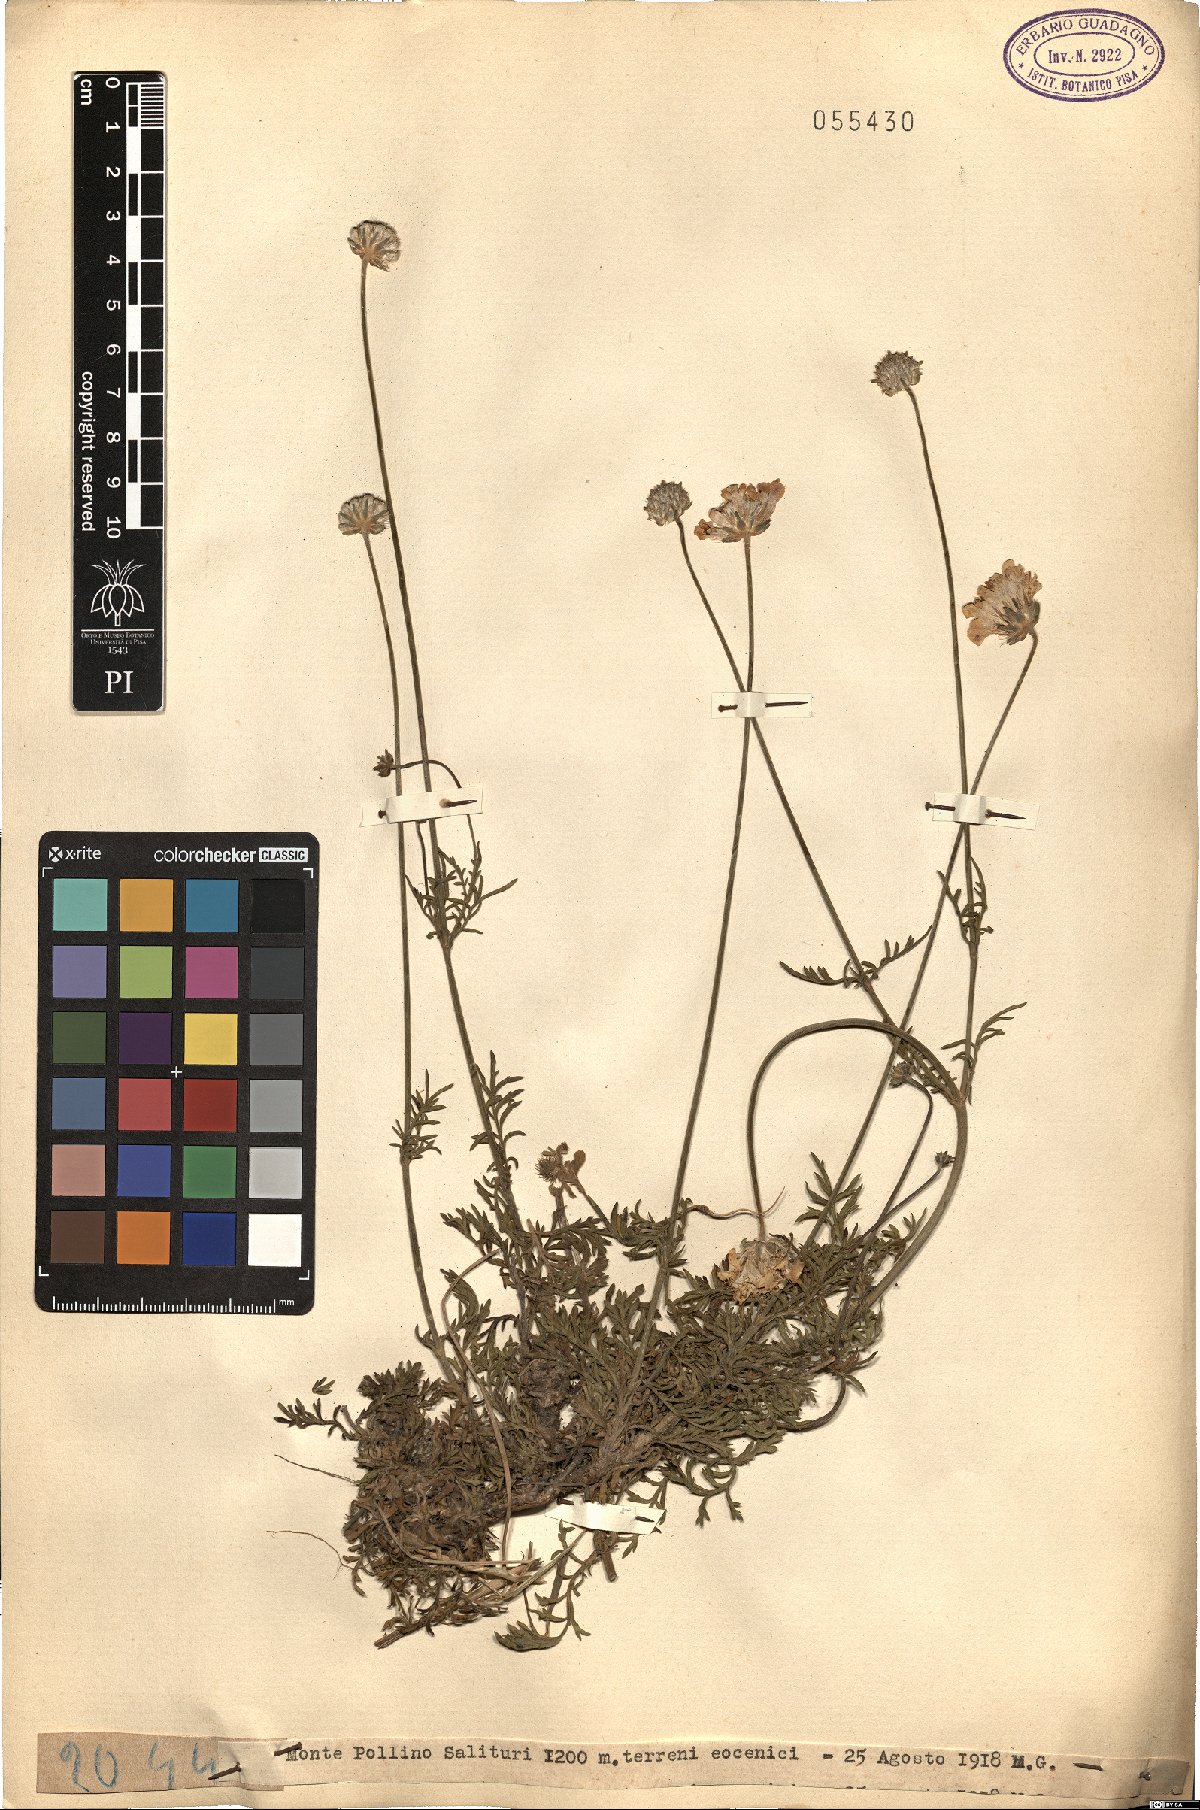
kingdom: Plantae
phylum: Tracheophyta
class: Magnoliopsida
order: Dipsacales
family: Caprifoliaceae
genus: Scabiosa
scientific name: Scabiosa
